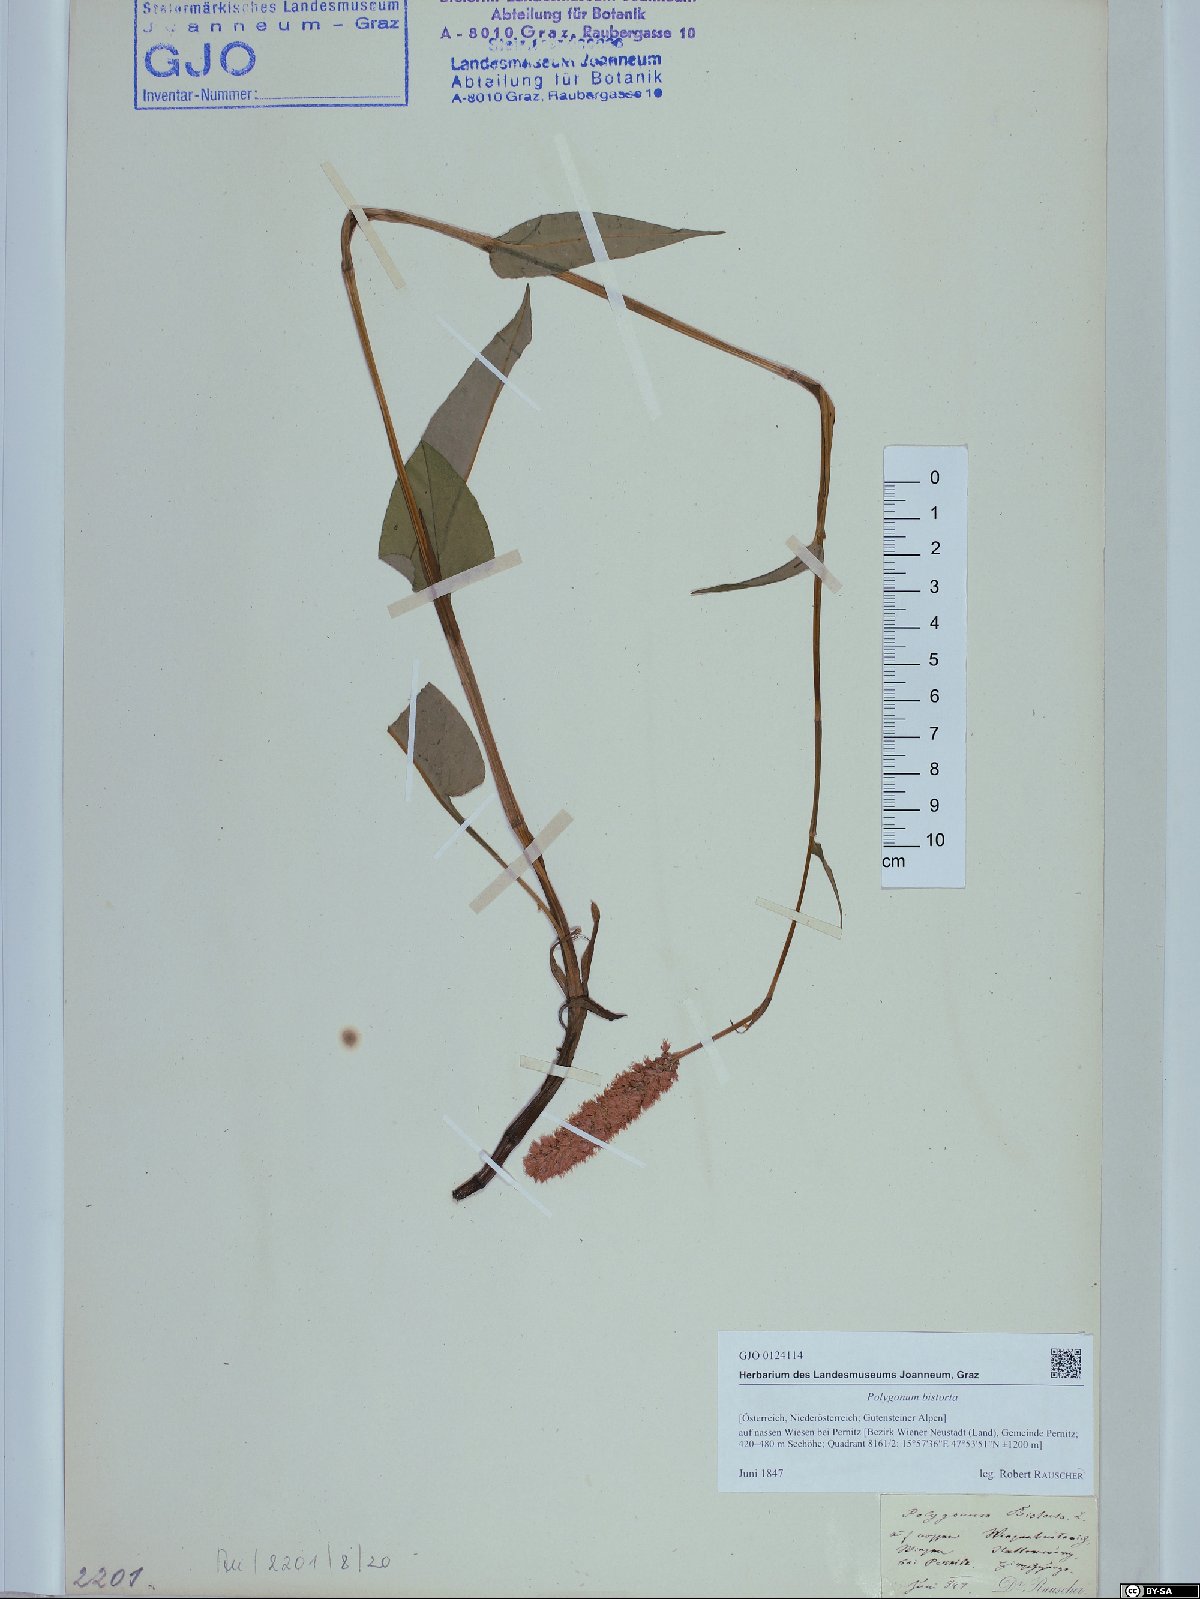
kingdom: Plantae
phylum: Tracheophyta
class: Magnoliopsida
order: Caryophyllales
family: Polygonaceae
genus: Bistorta
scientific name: Bistorta officinalis
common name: Common bistort
